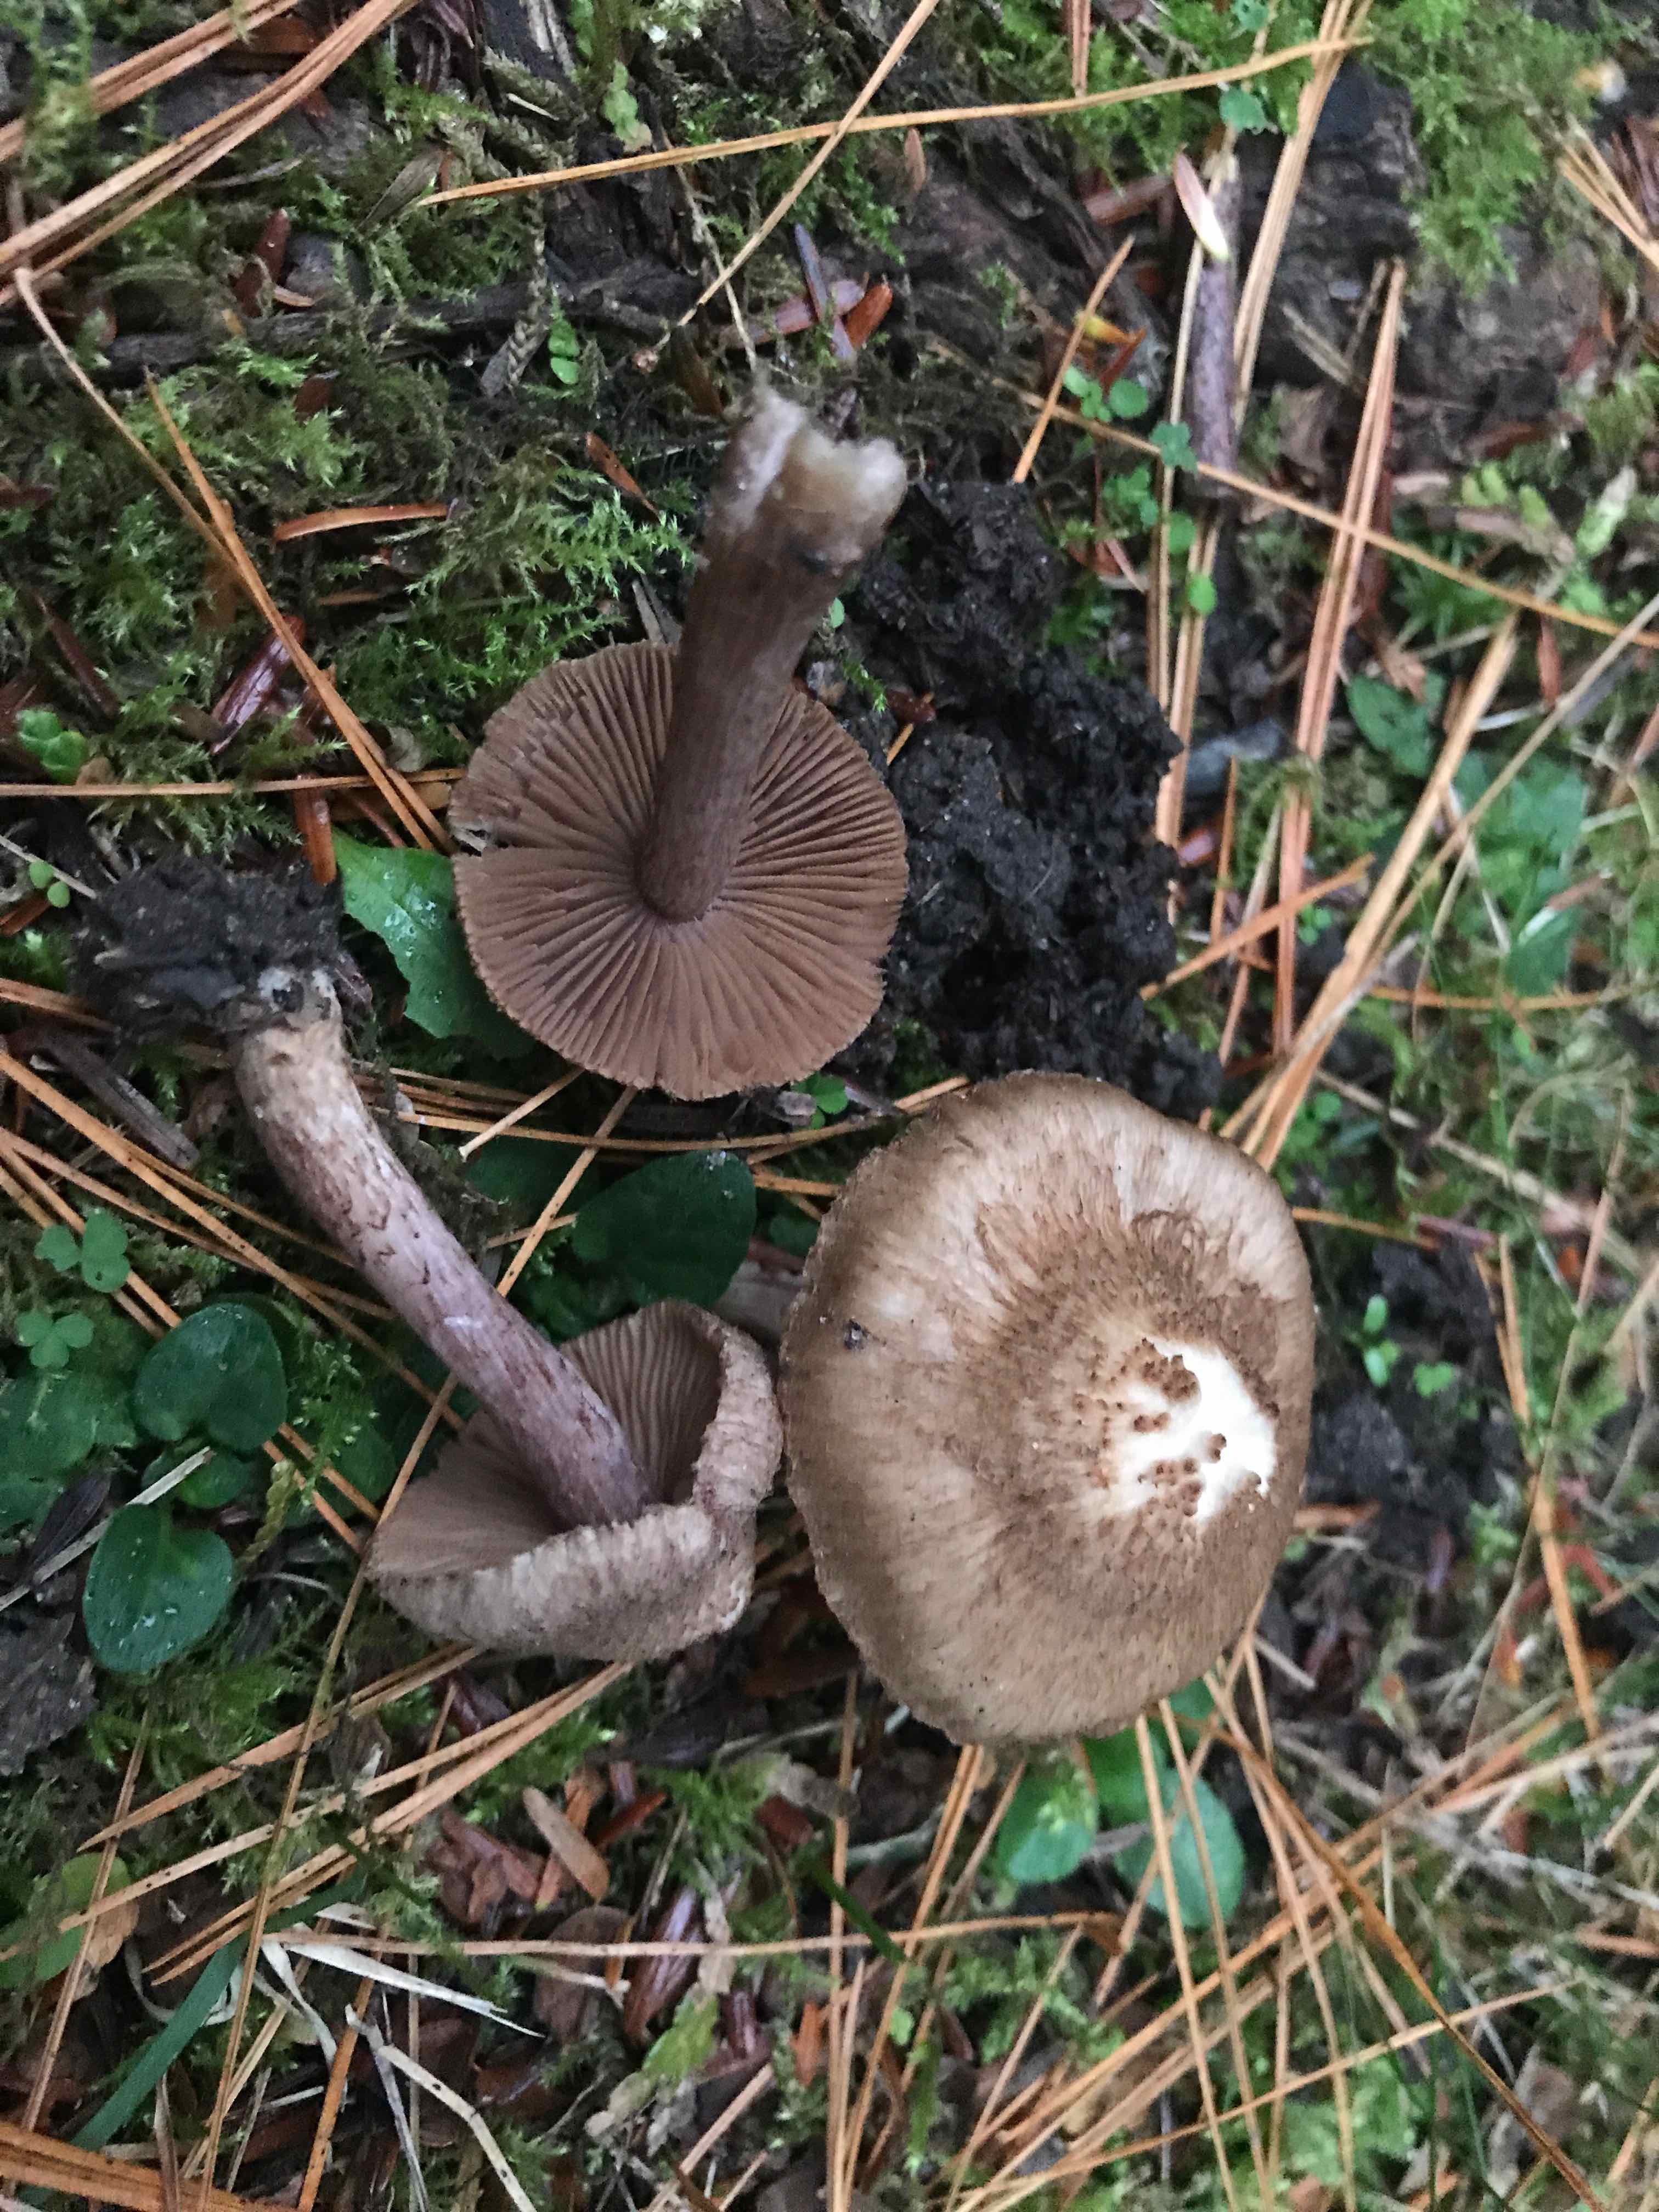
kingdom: Fungi
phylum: Basidiomycota
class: Agaricomycetes
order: Agaricales
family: Inocybaceae
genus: Inocybe
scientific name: Inocybe cincinnata
